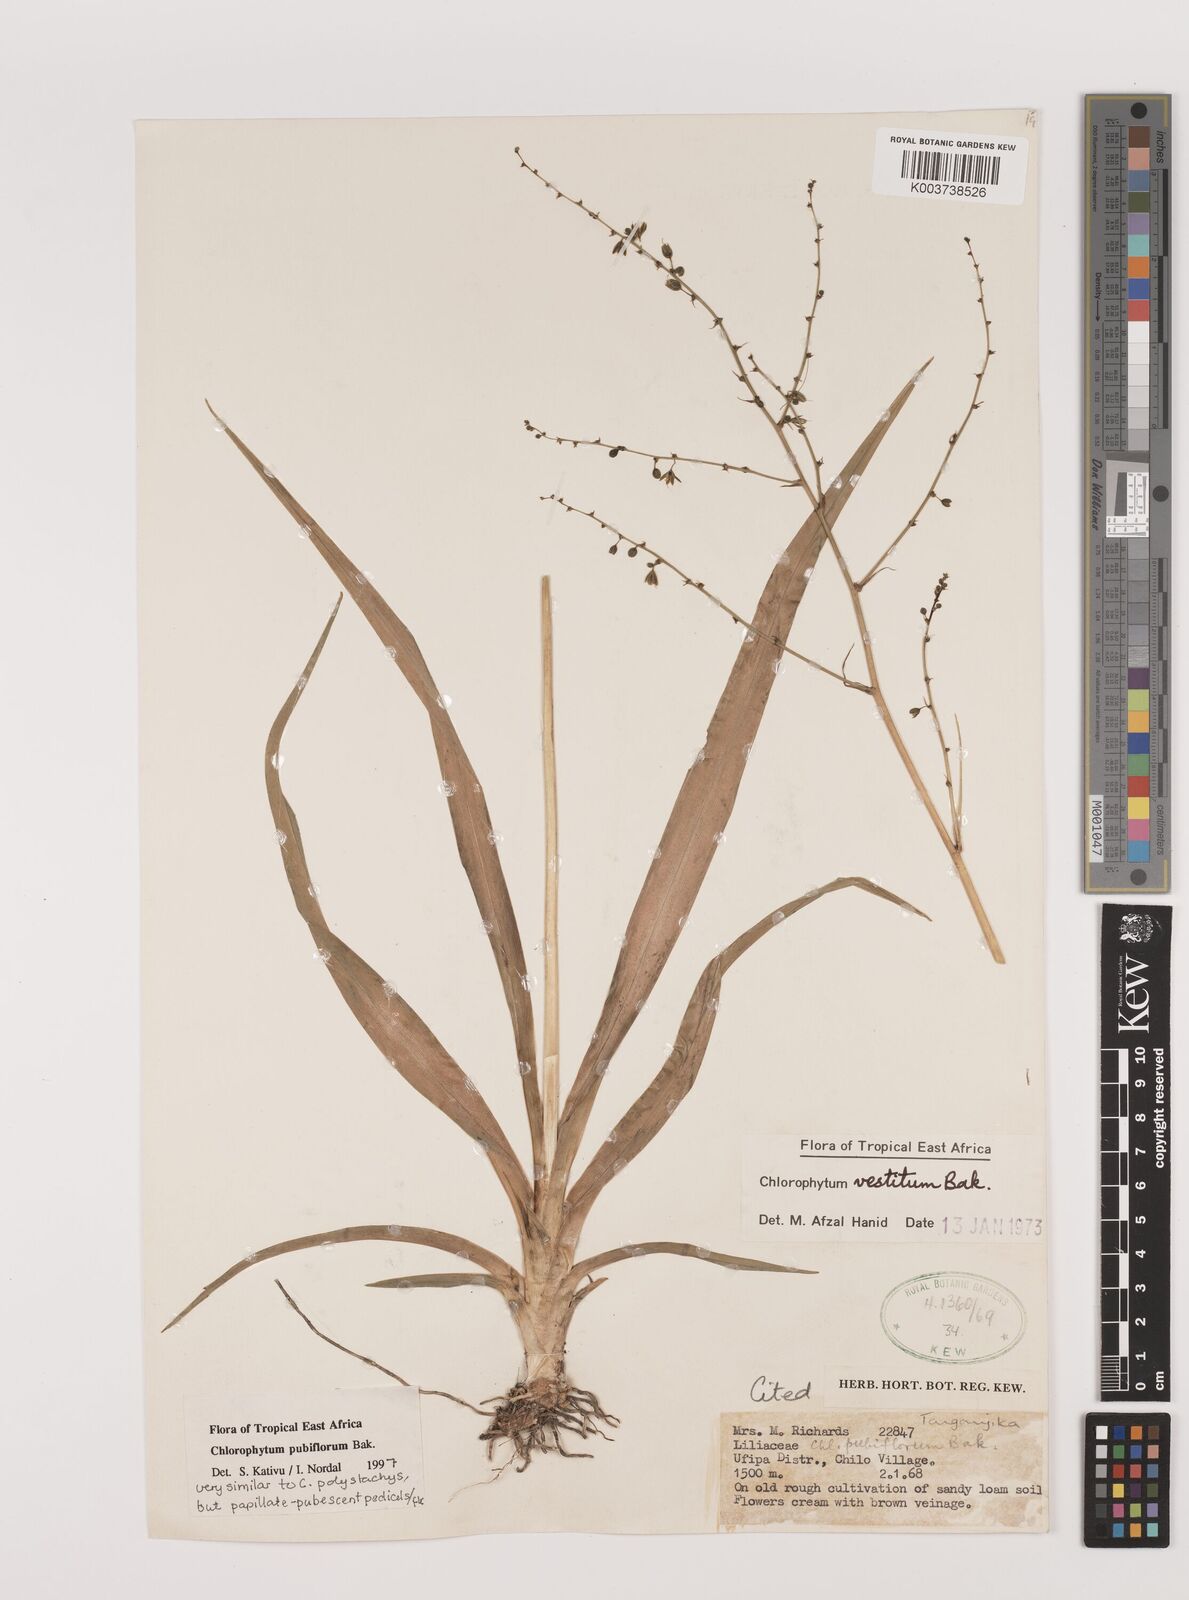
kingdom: Plantae
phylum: Tracheophyta
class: Liliopsida
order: Asparagales
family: Asparagaceae
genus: Chlorophytum
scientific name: Chlorophytum pubiflorum
